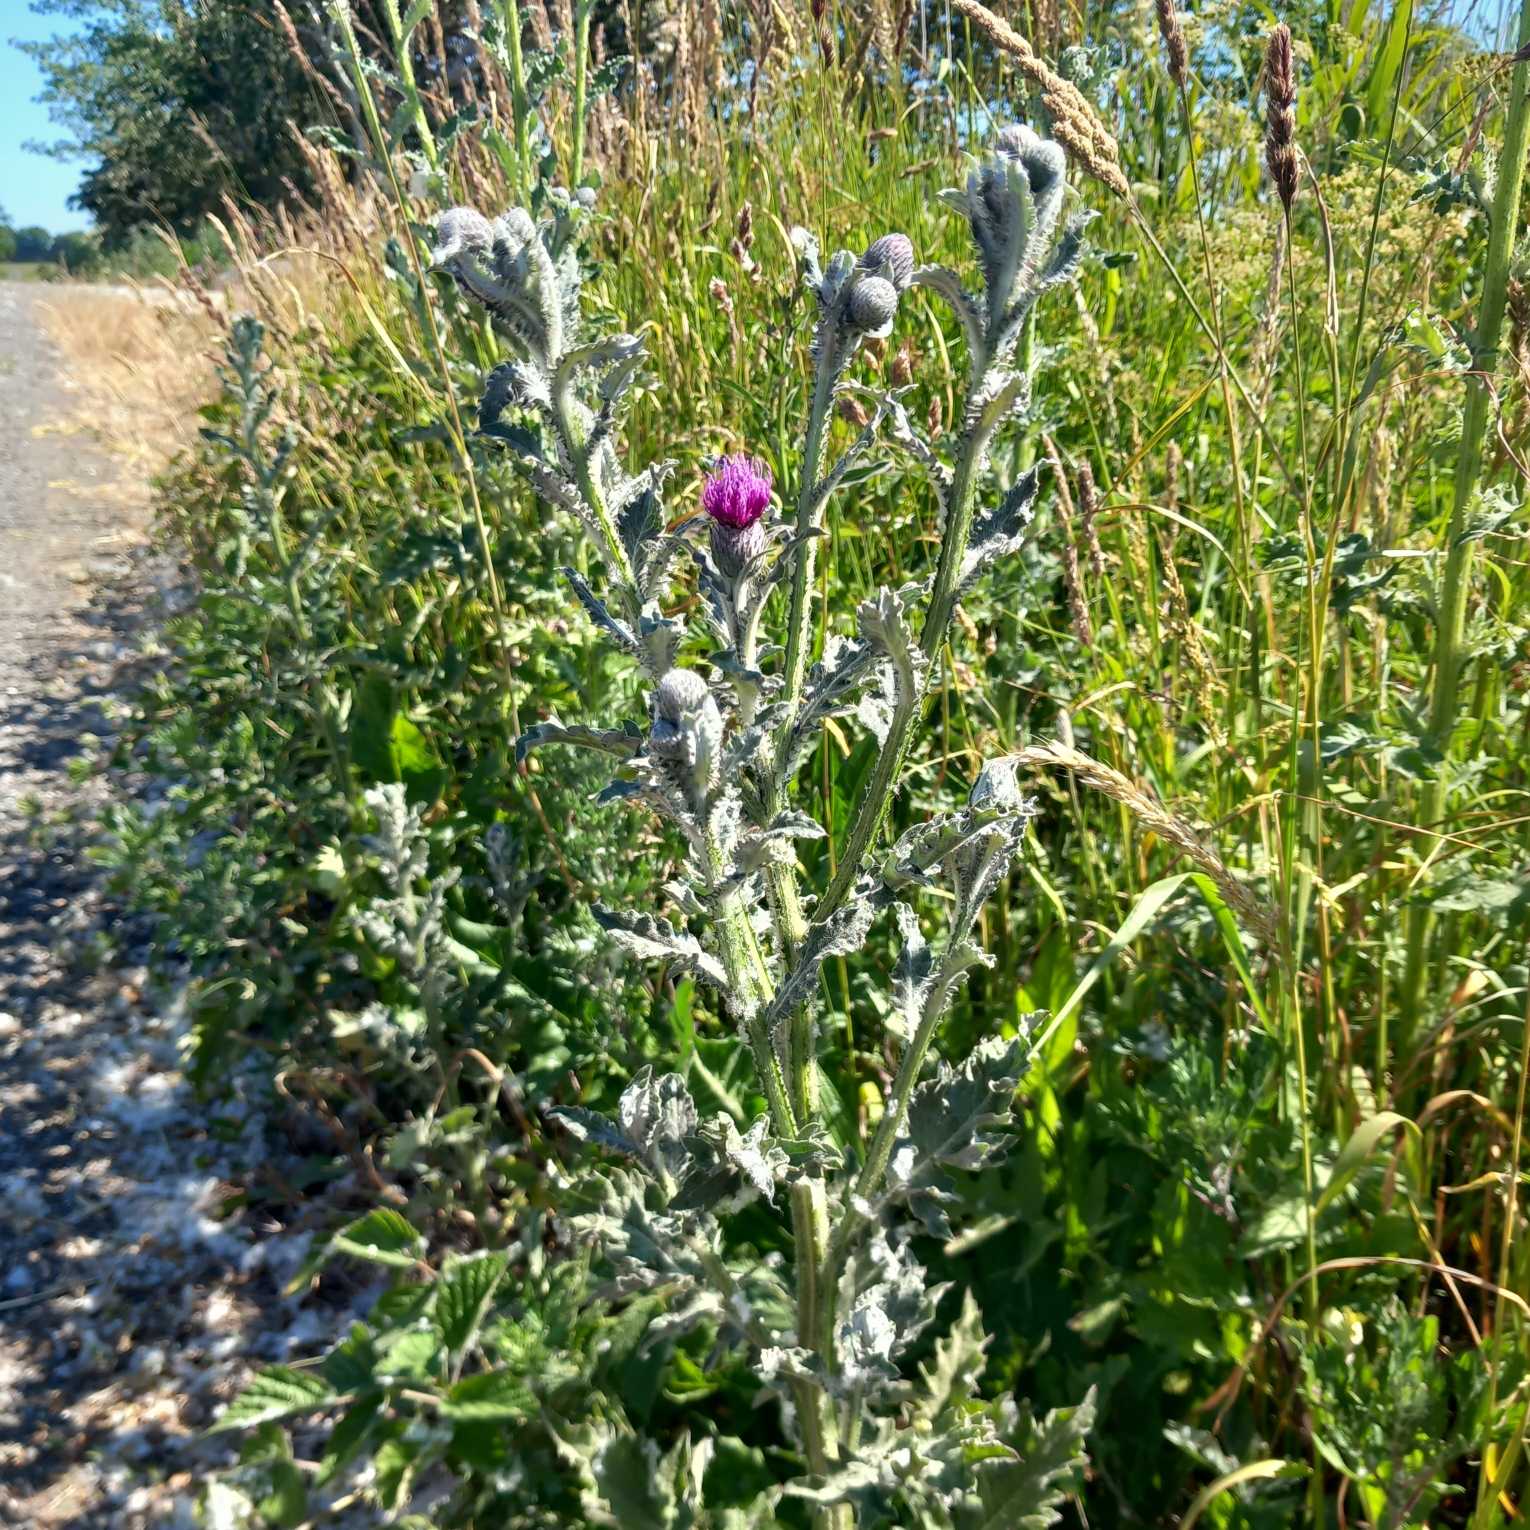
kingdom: Plantae
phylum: Tracheophyta
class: Magnoliopsida
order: Asterales
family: Asteraceae
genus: Carduus
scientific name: Carduus crispus
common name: Kruset tidsel
